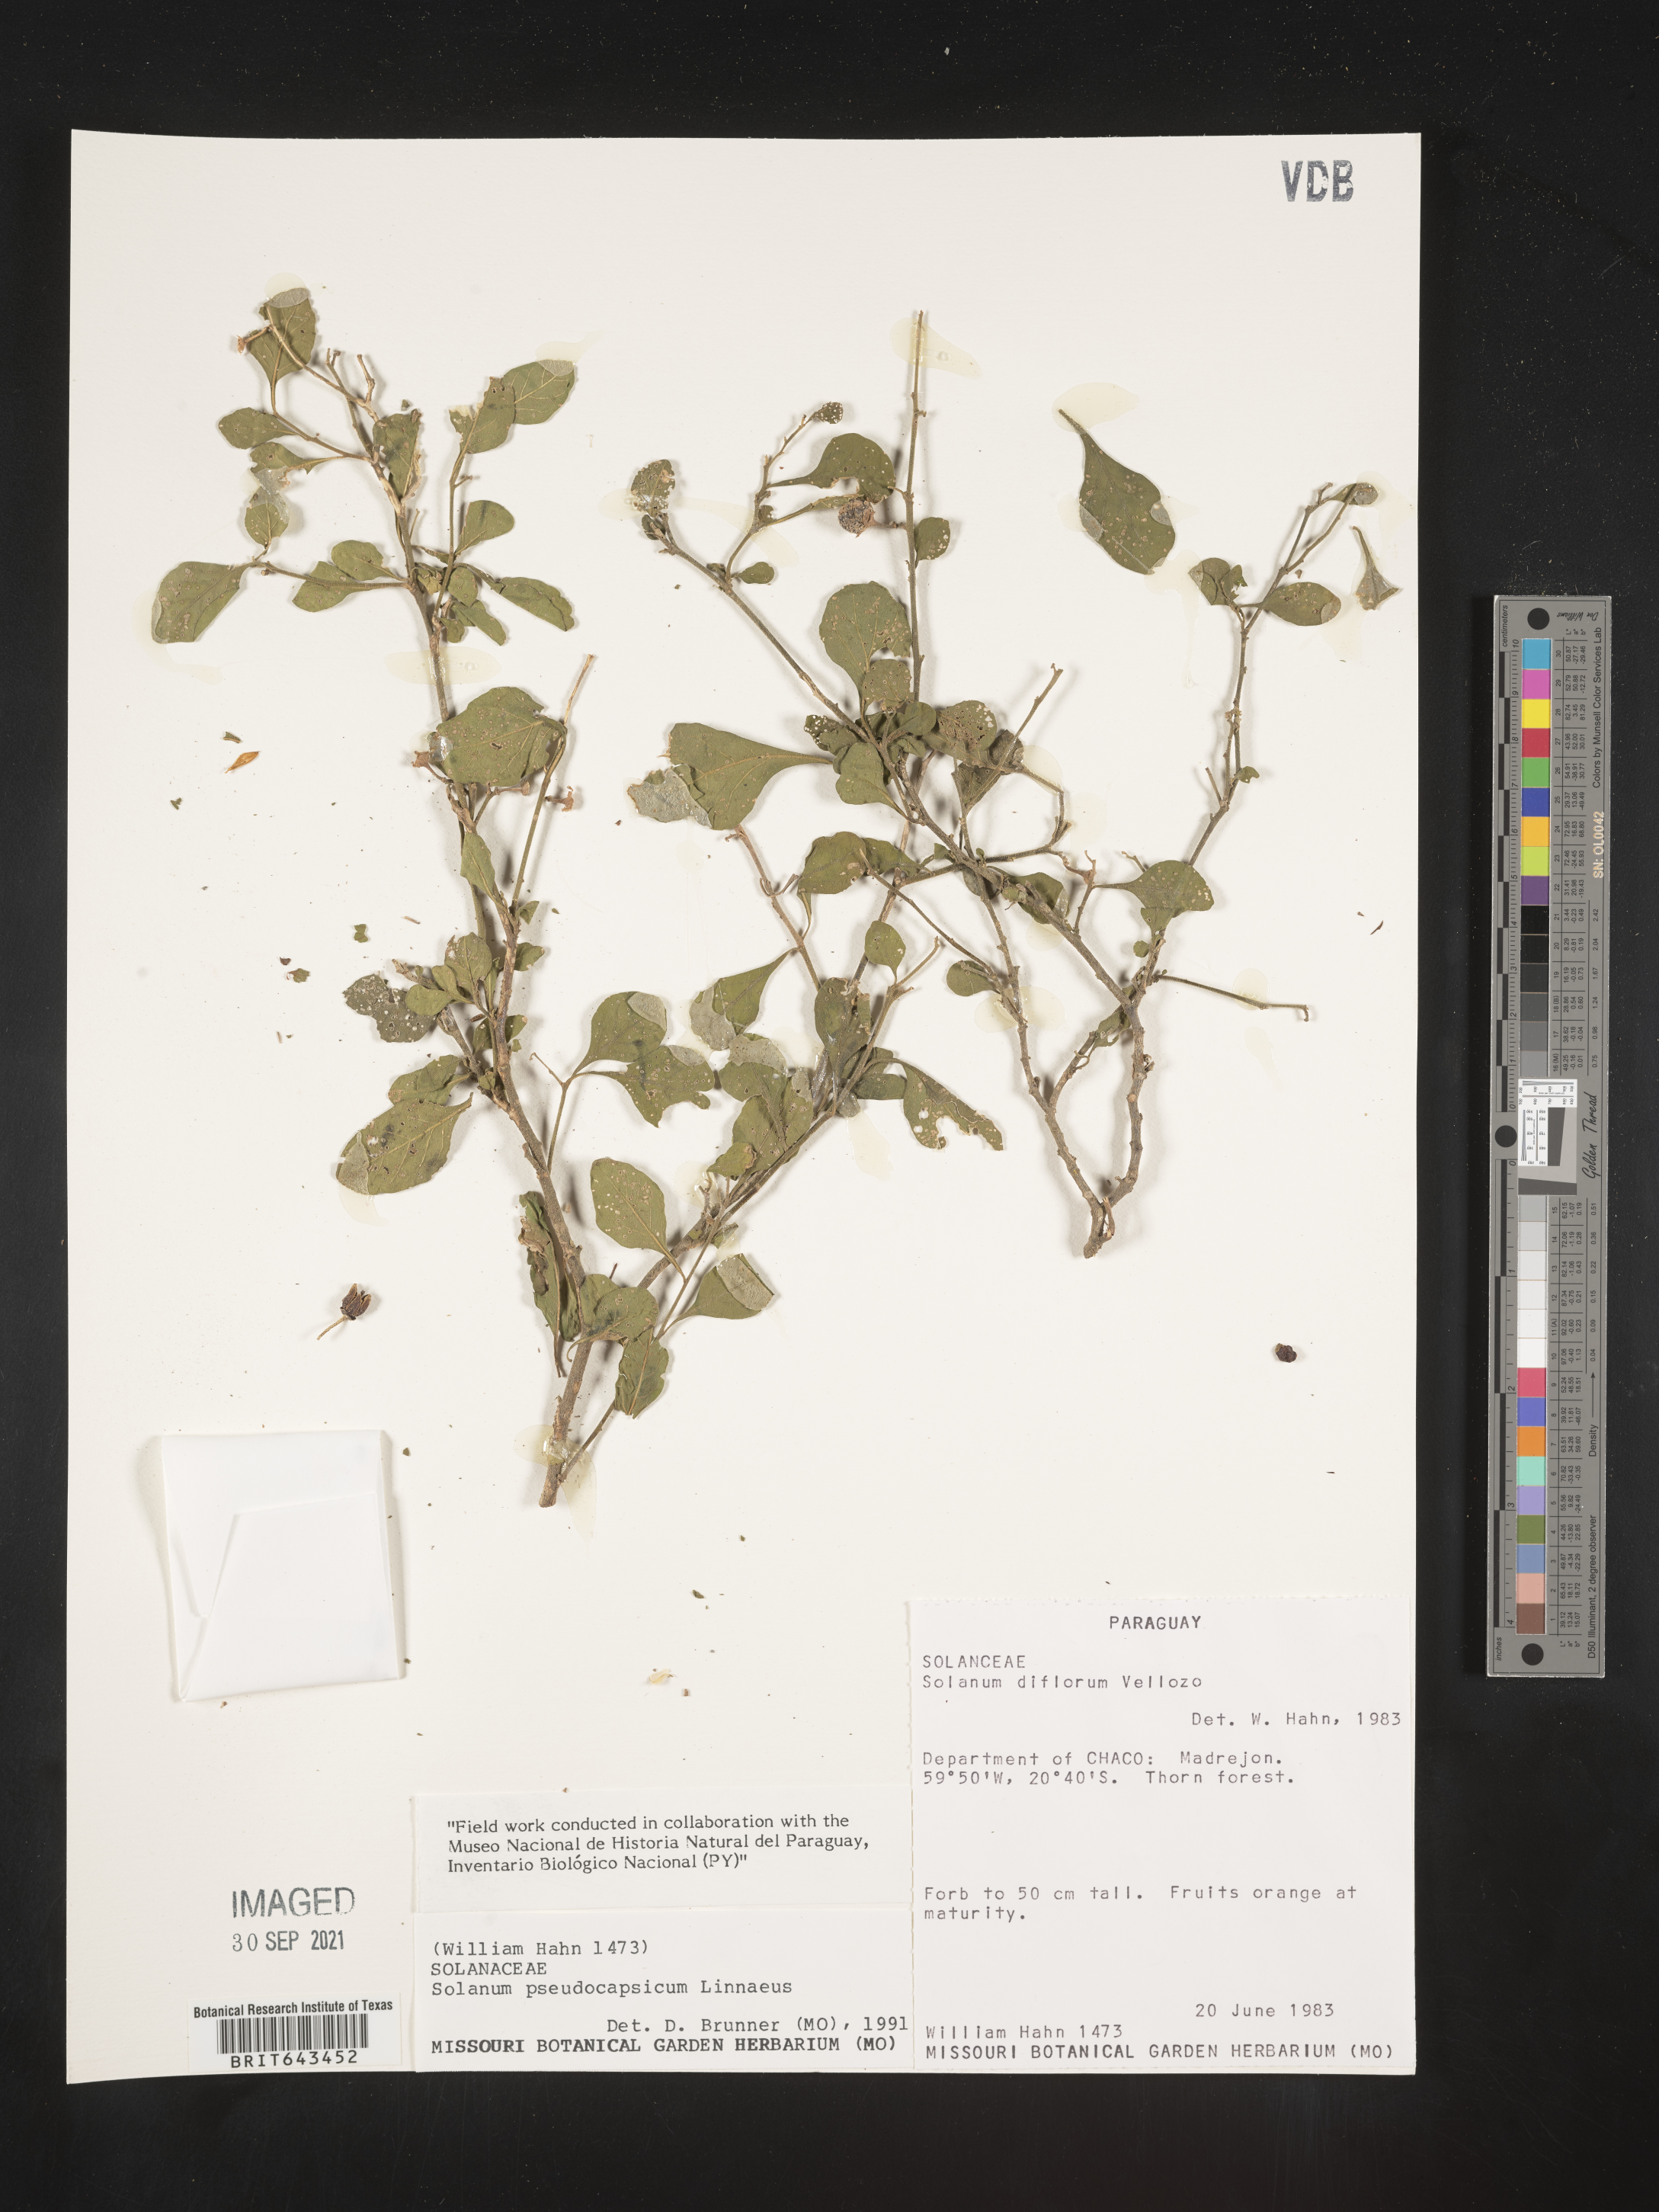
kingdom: Plantae
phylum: Tracheophyta
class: Magnoliopsida
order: Solanales
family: Solanaceae
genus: Solanum
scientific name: Solanum
